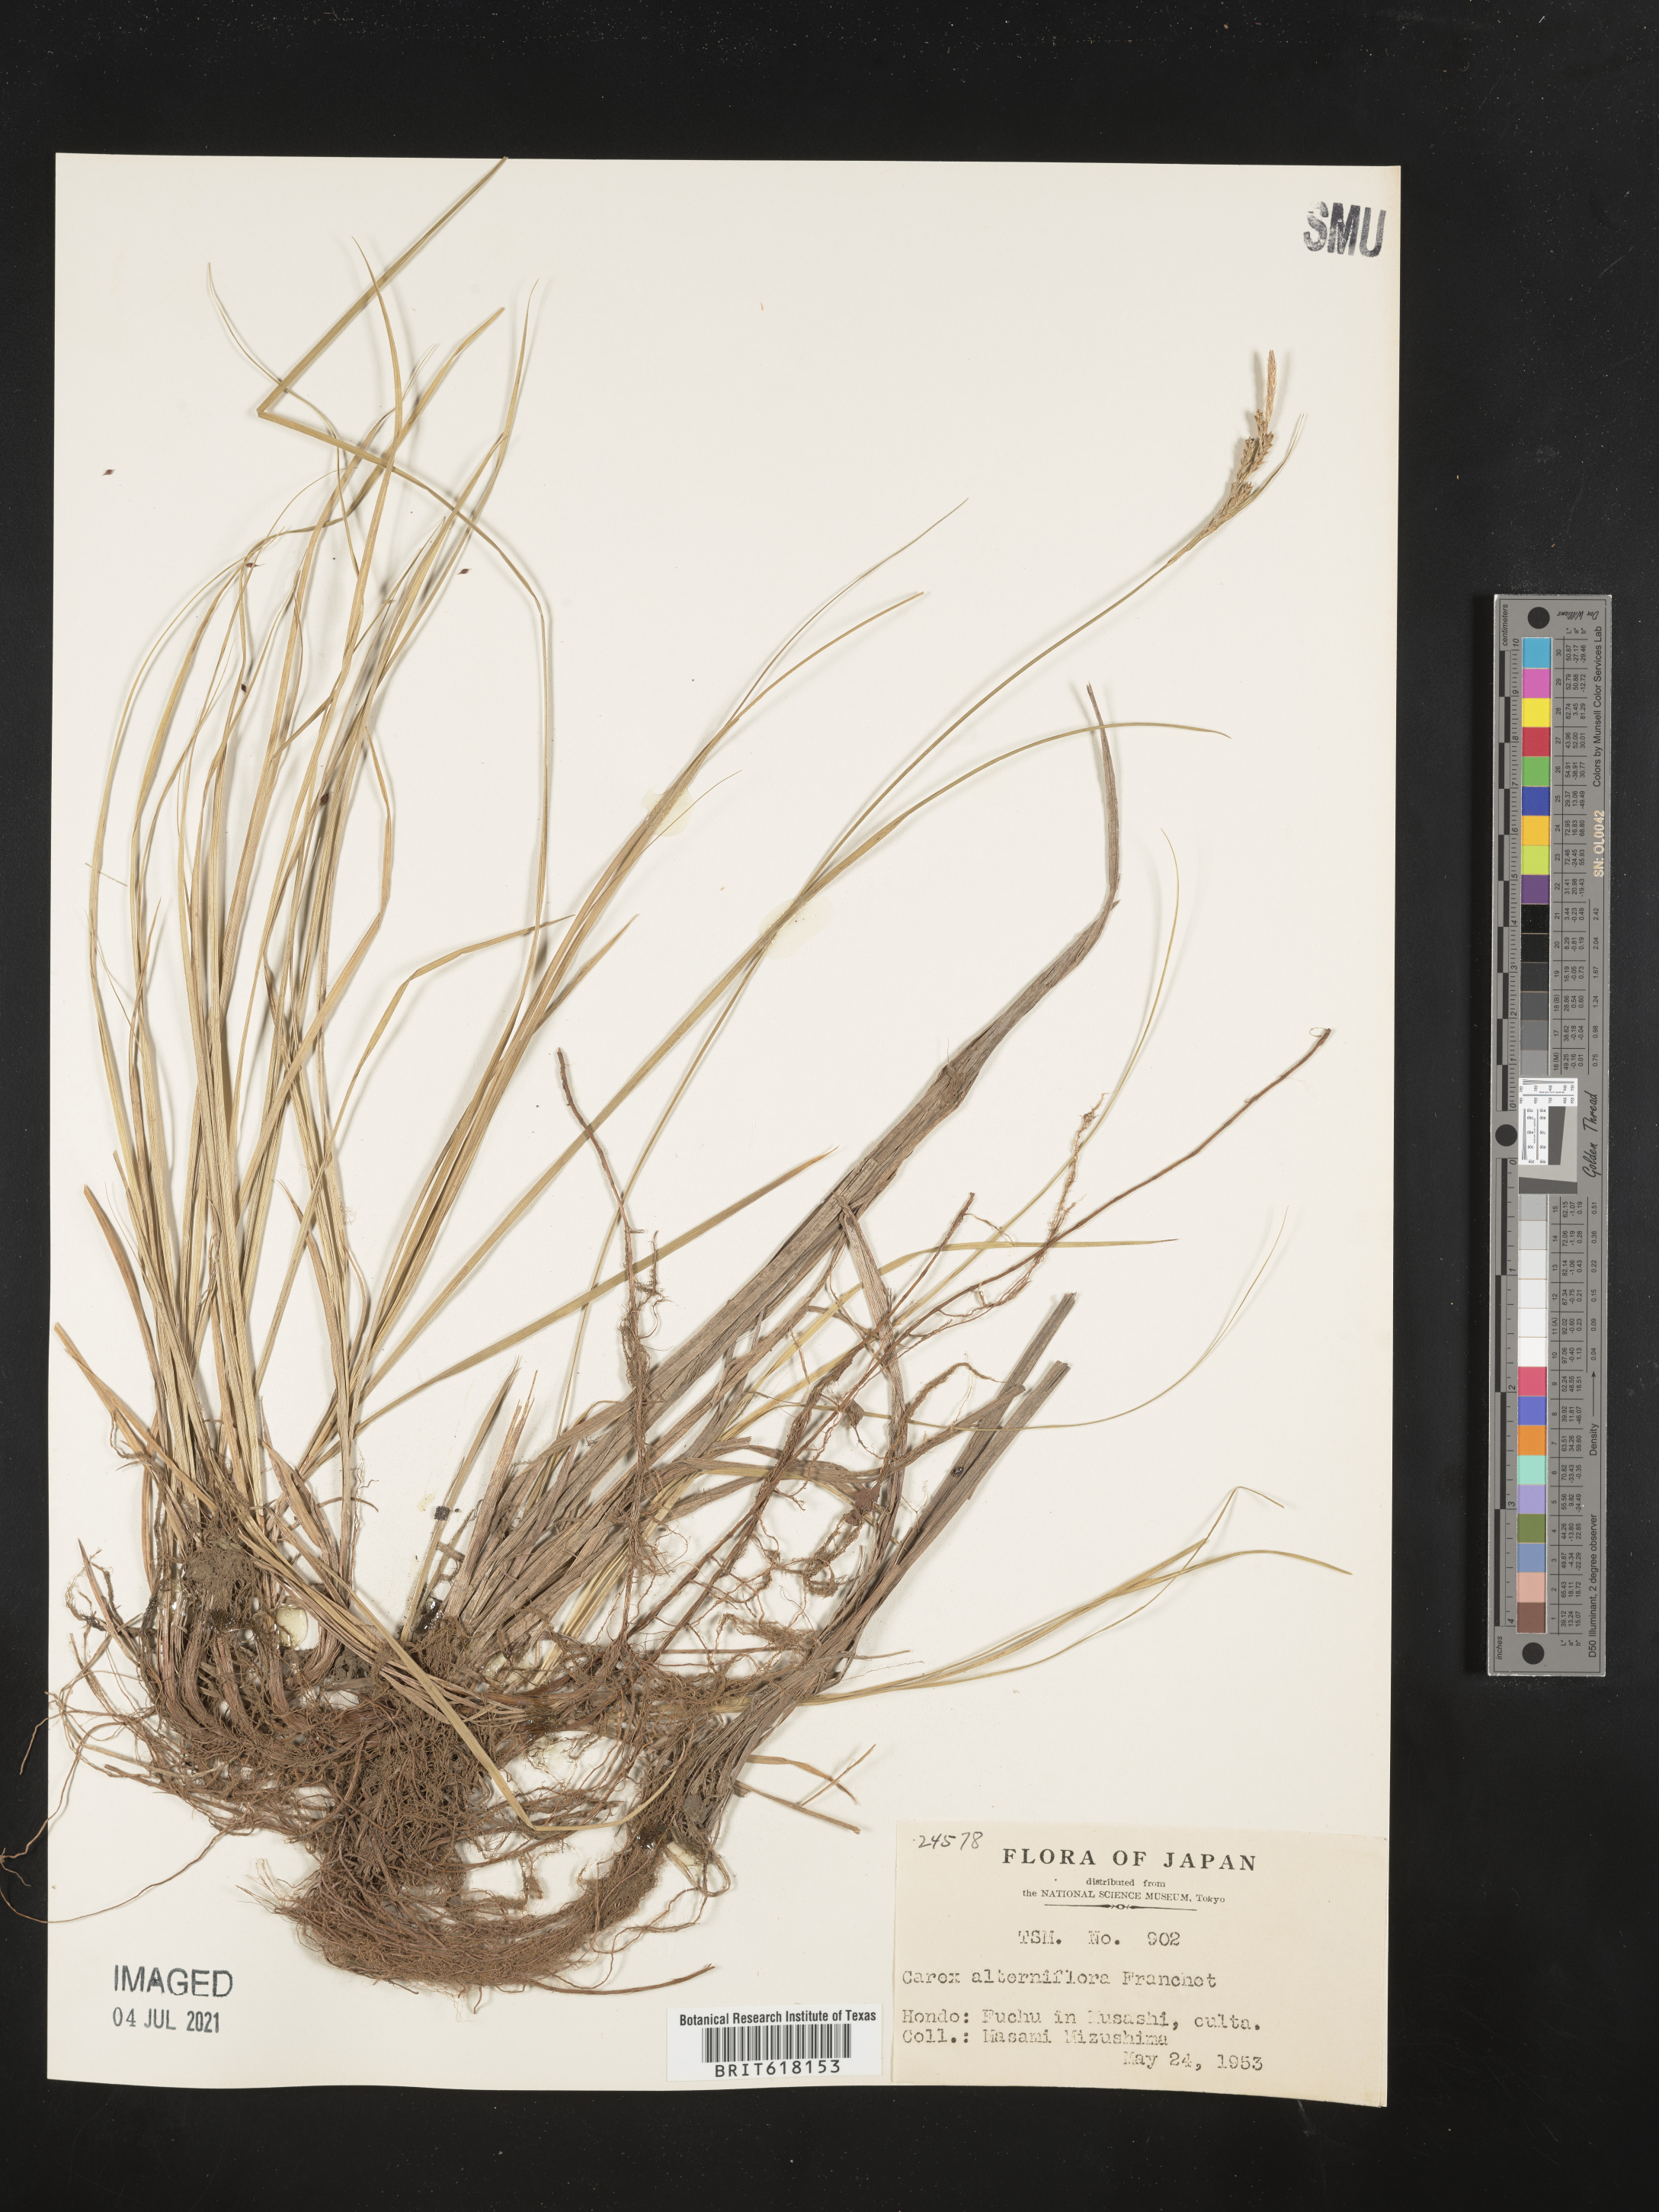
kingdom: Plantae
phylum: Tracheophyta
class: Liliopsida
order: Poales
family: Cyperaceae
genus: Carex
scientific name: Carex pisiformis
